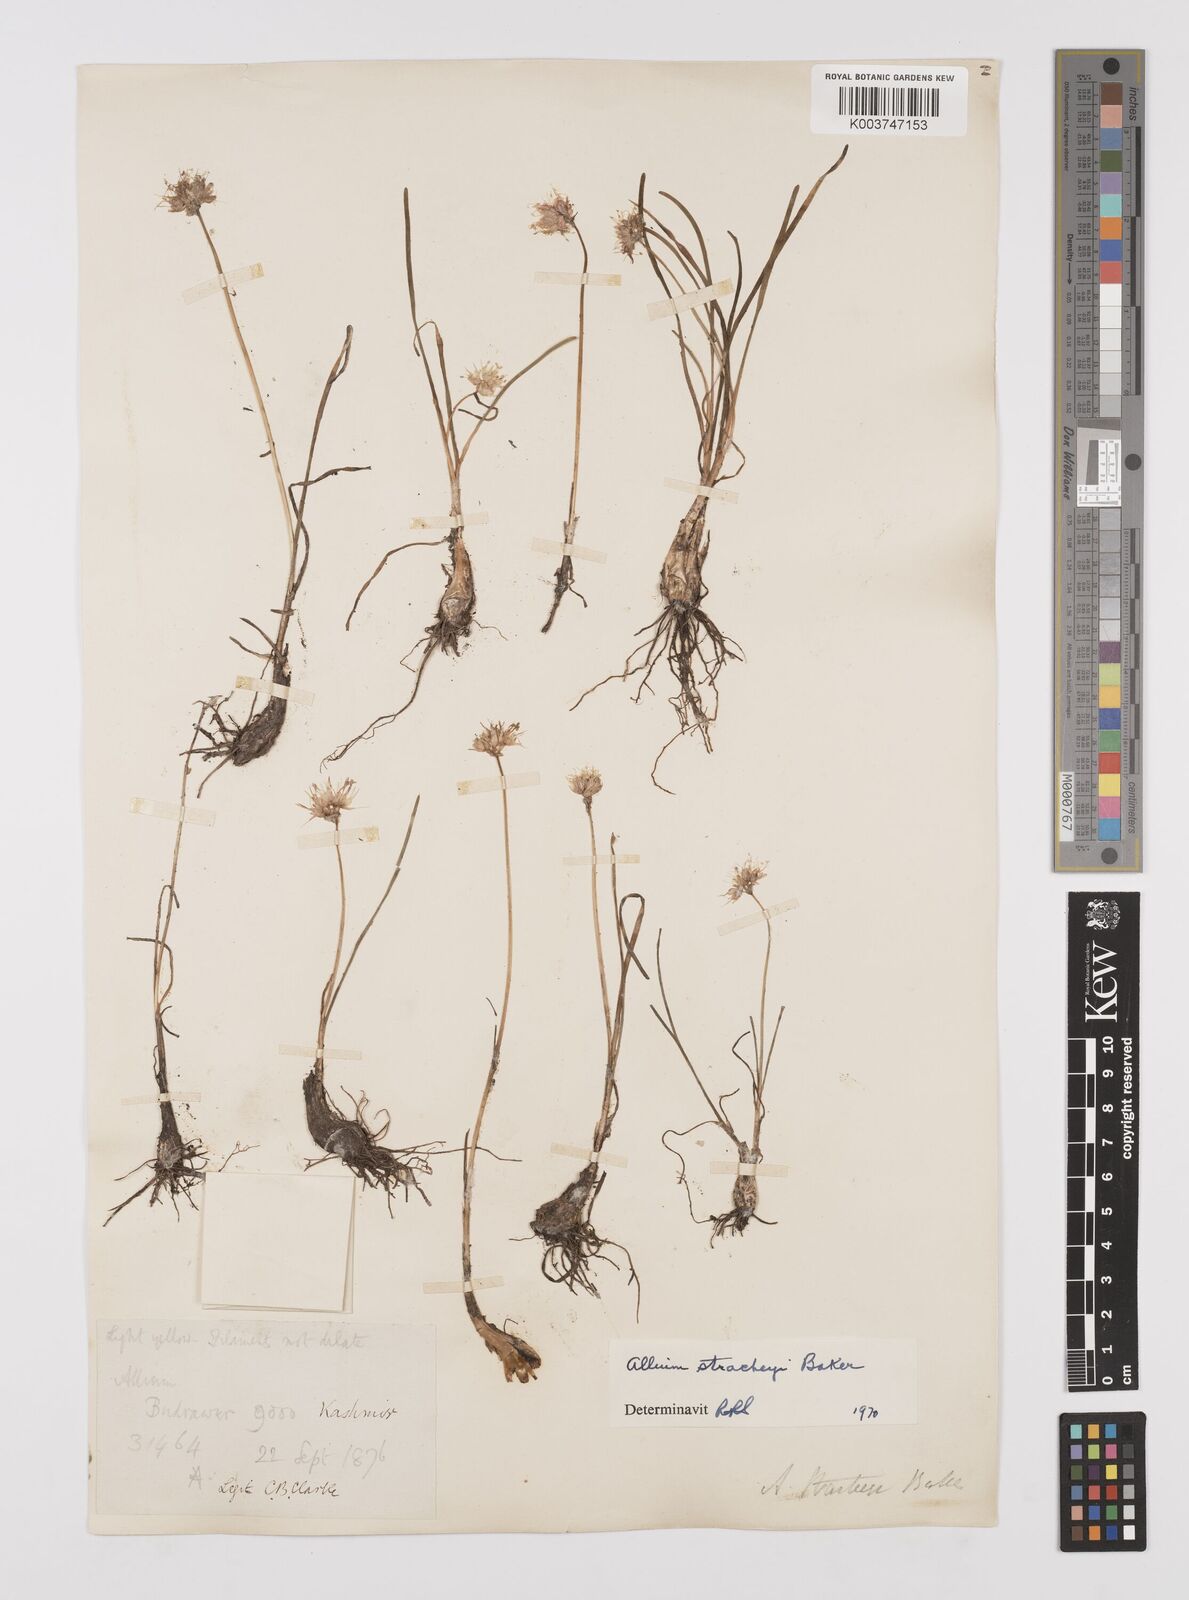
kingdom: Plantae
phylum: Tracheophyta
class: Liliopsida
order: Asparagales
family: Amaryllidaceae
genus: Allium
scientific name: Allium stracheyi
